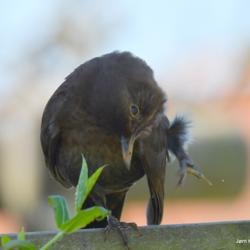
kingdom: Animalia
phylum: Chordata
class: Aves
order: Passeriformes
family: Turdidae
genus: Turdus
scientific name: Turdus merula
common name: Solsort
